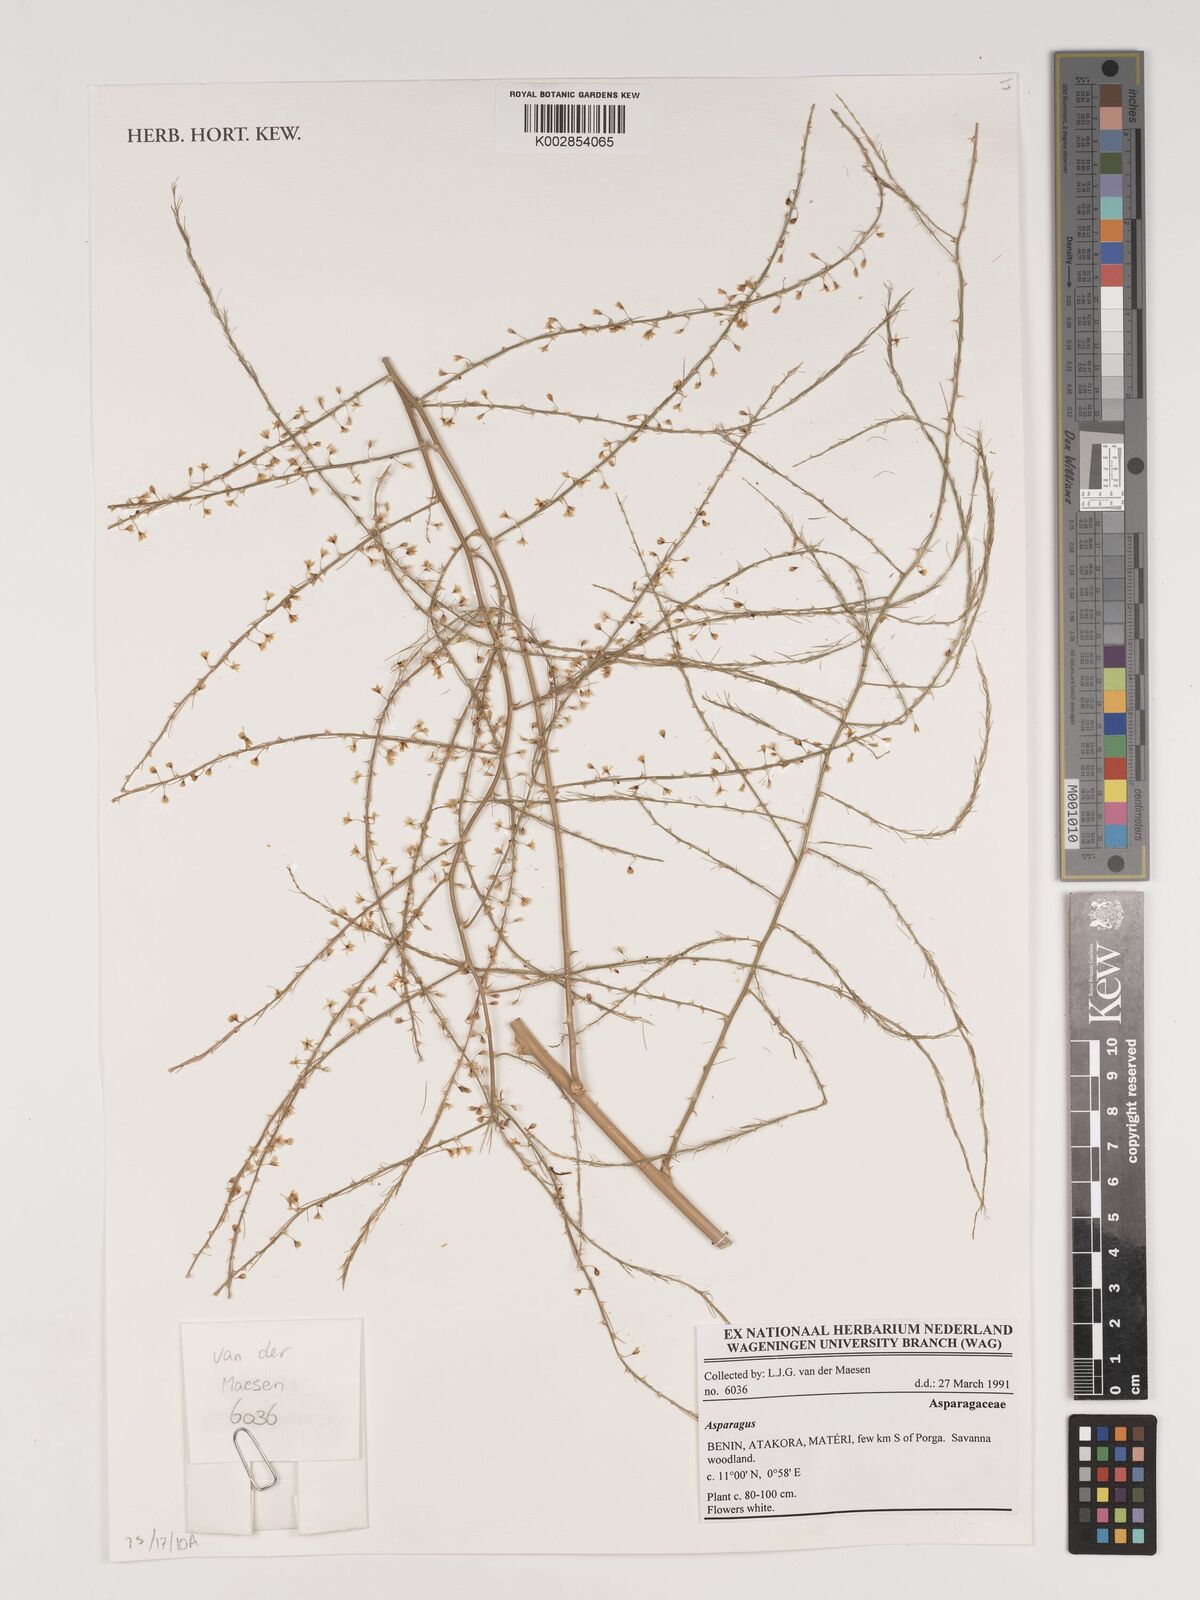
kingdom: Plantae
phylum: Tracheophyta
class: Liliopsida
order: Asparagales
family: Asparagaceae
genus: Asparagus
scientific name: Asparagus
